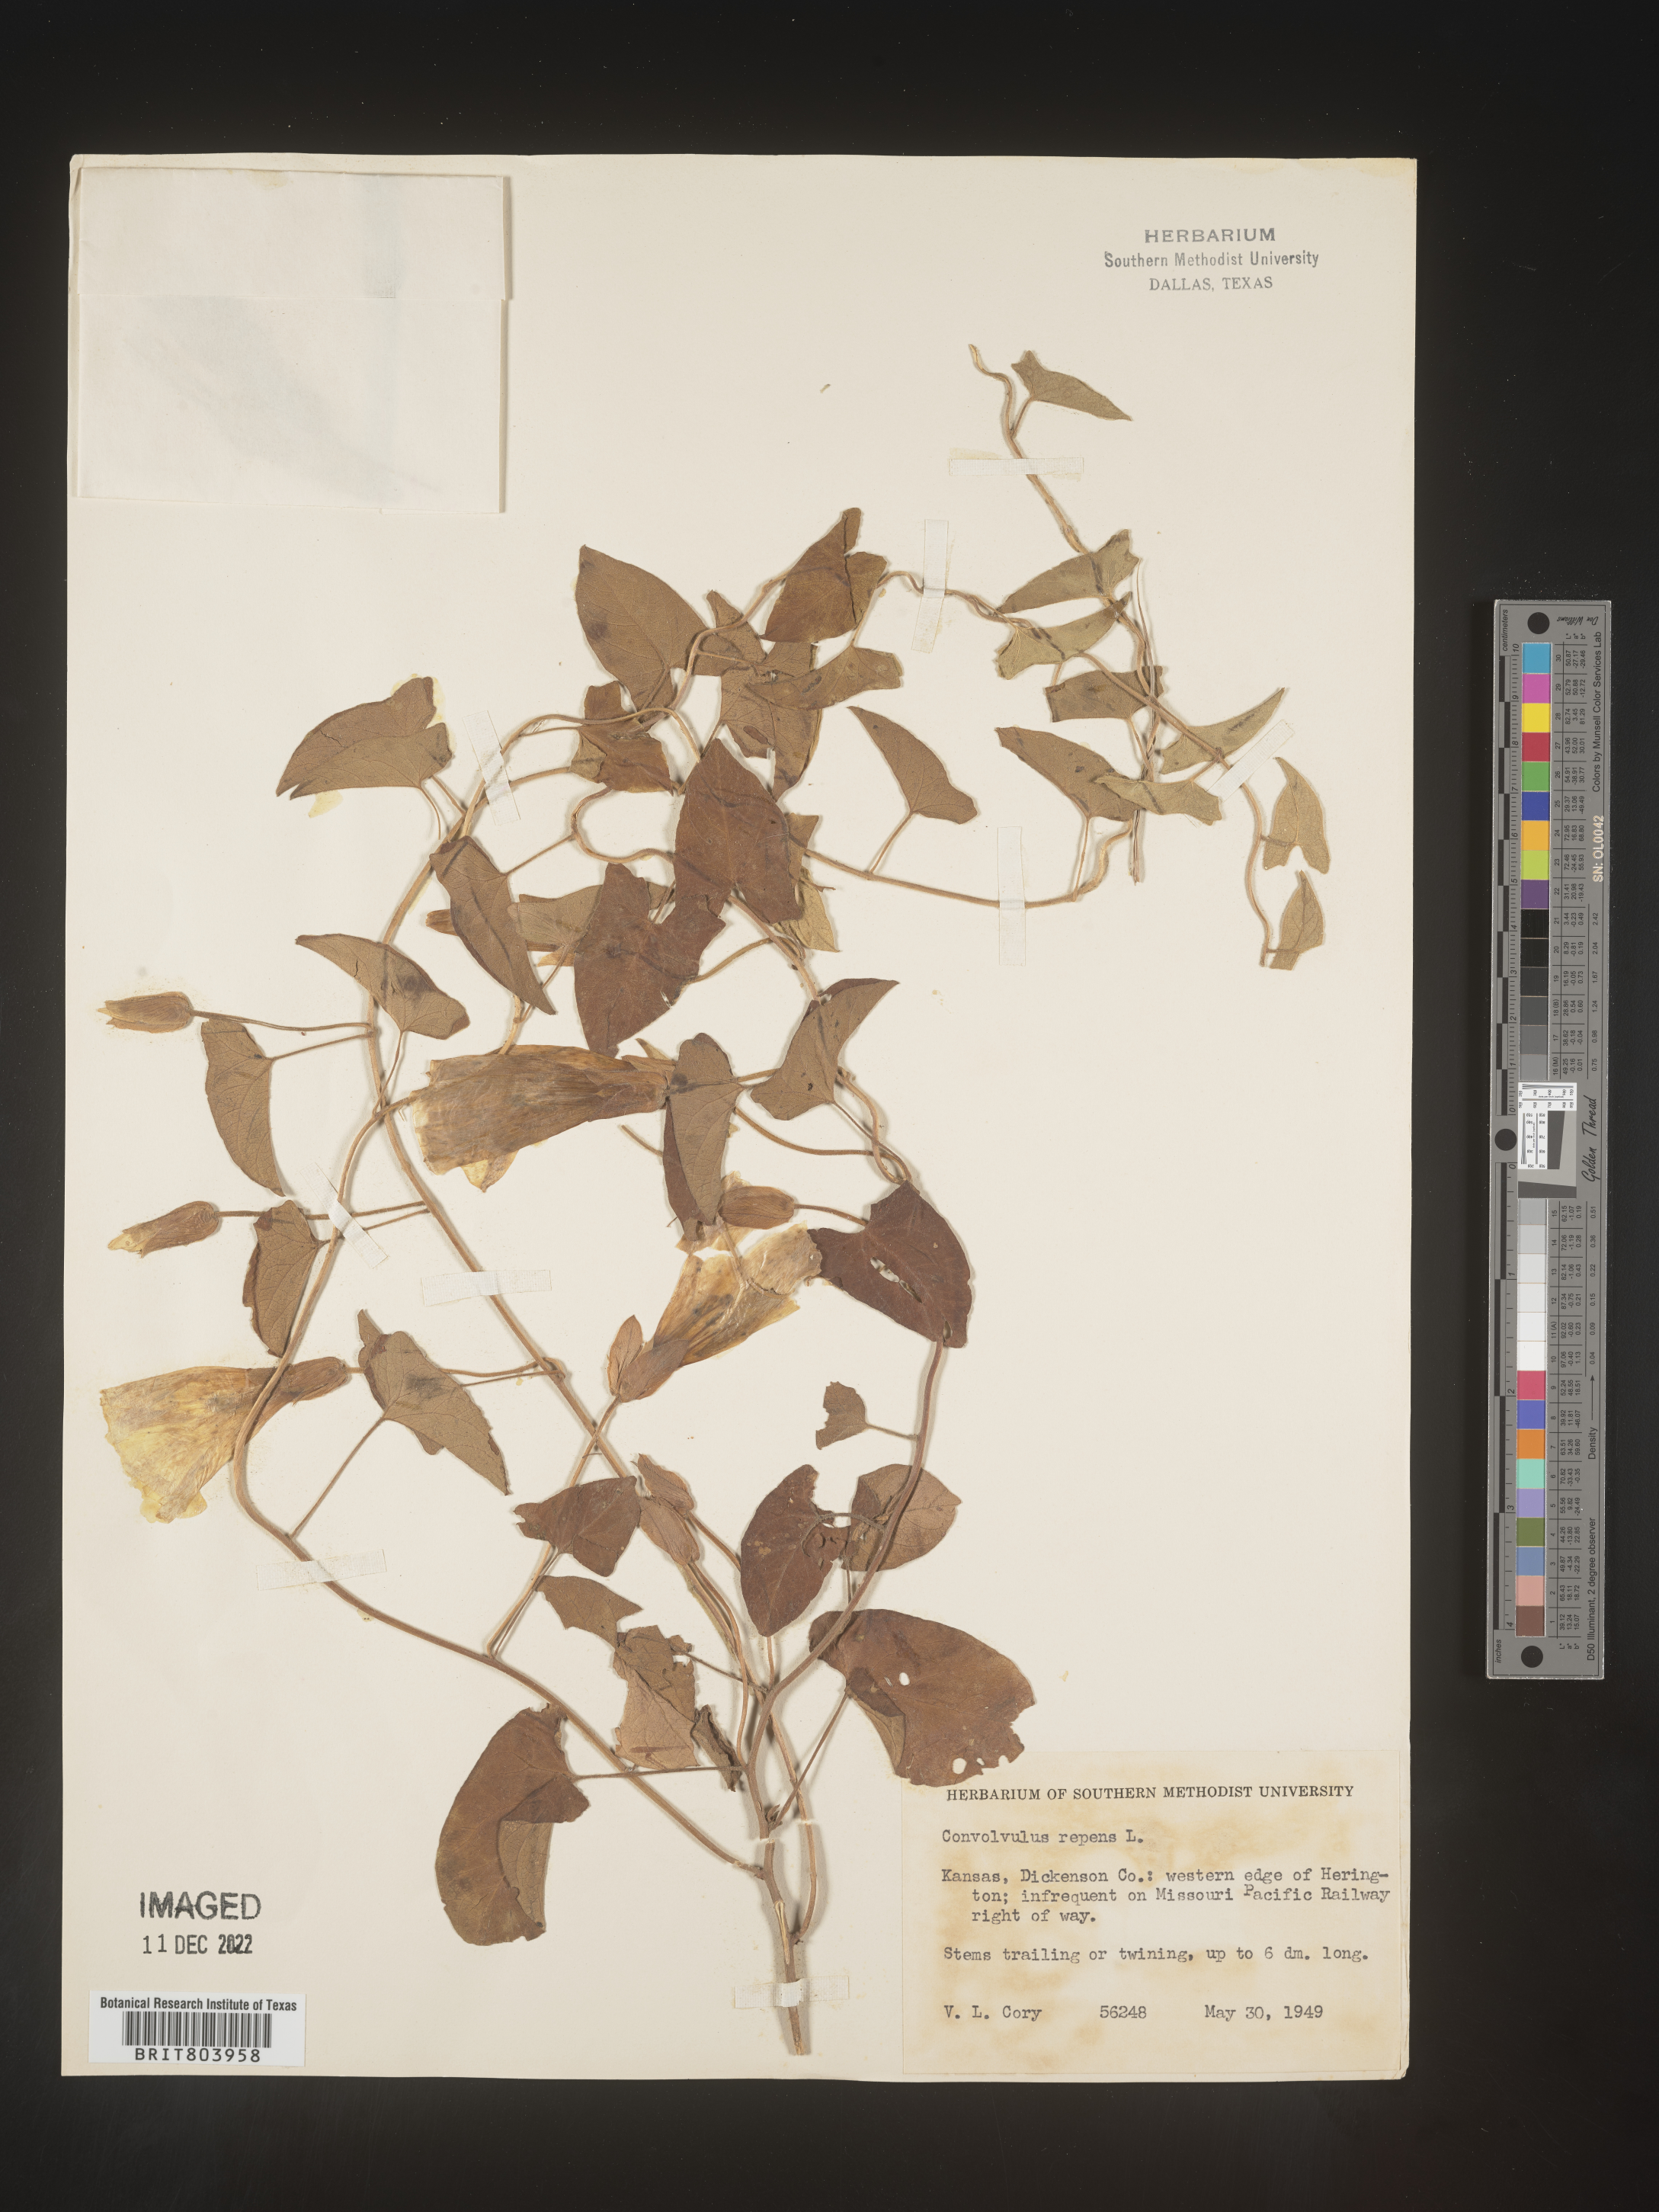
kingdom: Plantae
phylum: Tracheophyta
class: Magnoliopsida
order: Solanales
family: Convolvulaceae
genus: Calystegia
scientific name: Calystegia sepium
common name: Hedge bindweed
